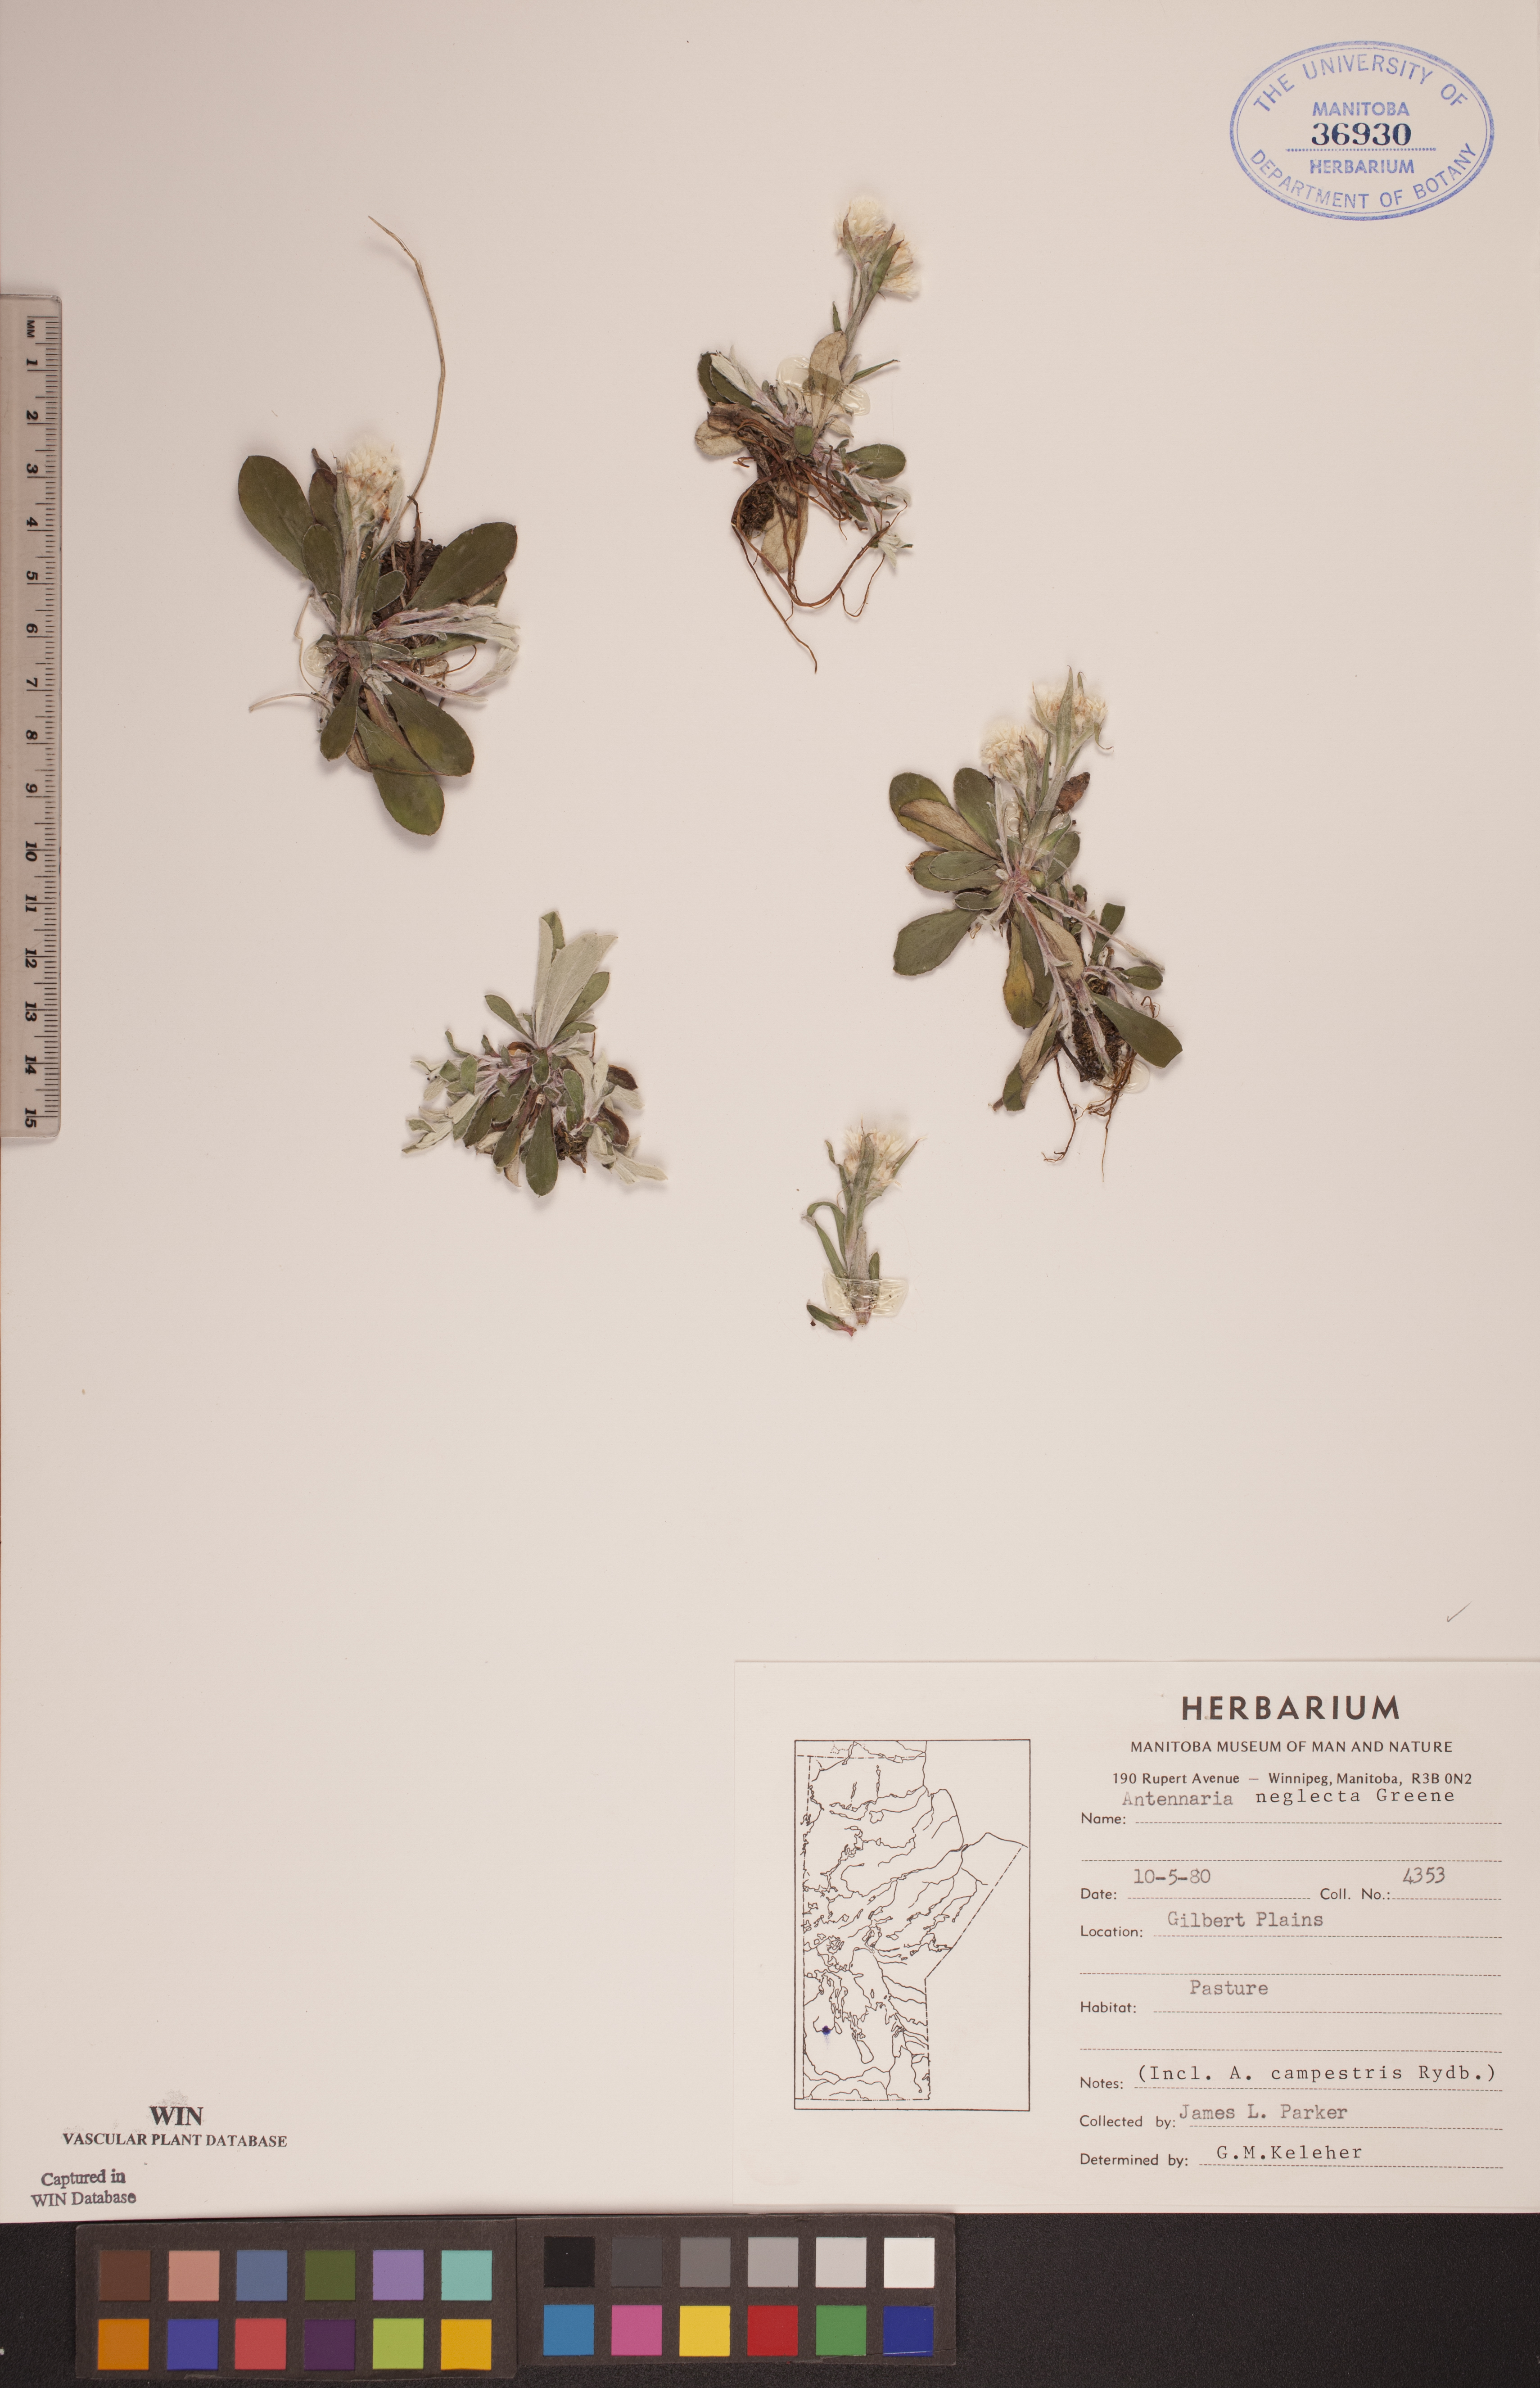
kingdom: Plantae
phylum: Tracheophyta
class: Magnoliopsida
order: Asterales
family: Asteraceae
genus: Antennaria
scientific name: Antennaria neglecta
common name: Field pussytoes
